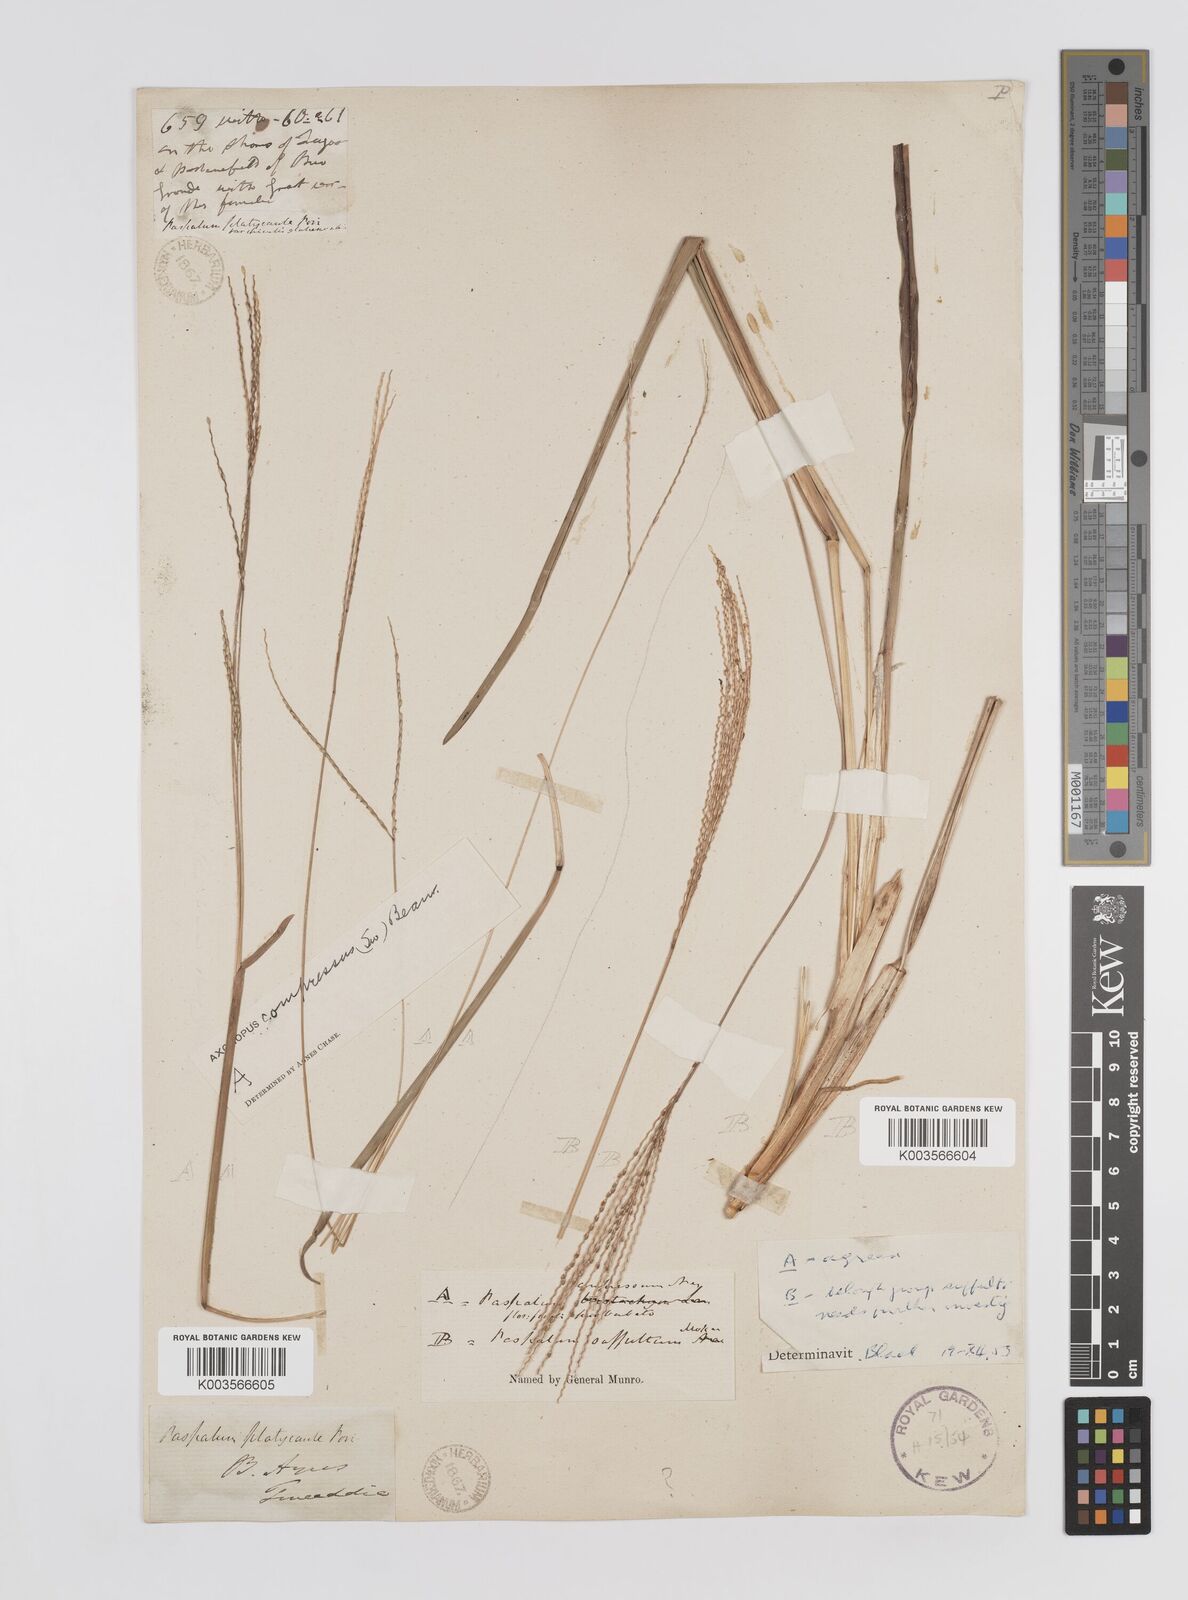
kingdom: Plantae
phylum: Tracheophyta
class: Liliopsida
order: Poales
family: Poaceae
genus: Axonopus
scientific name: Axonopus compressus
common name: American carpet grass
